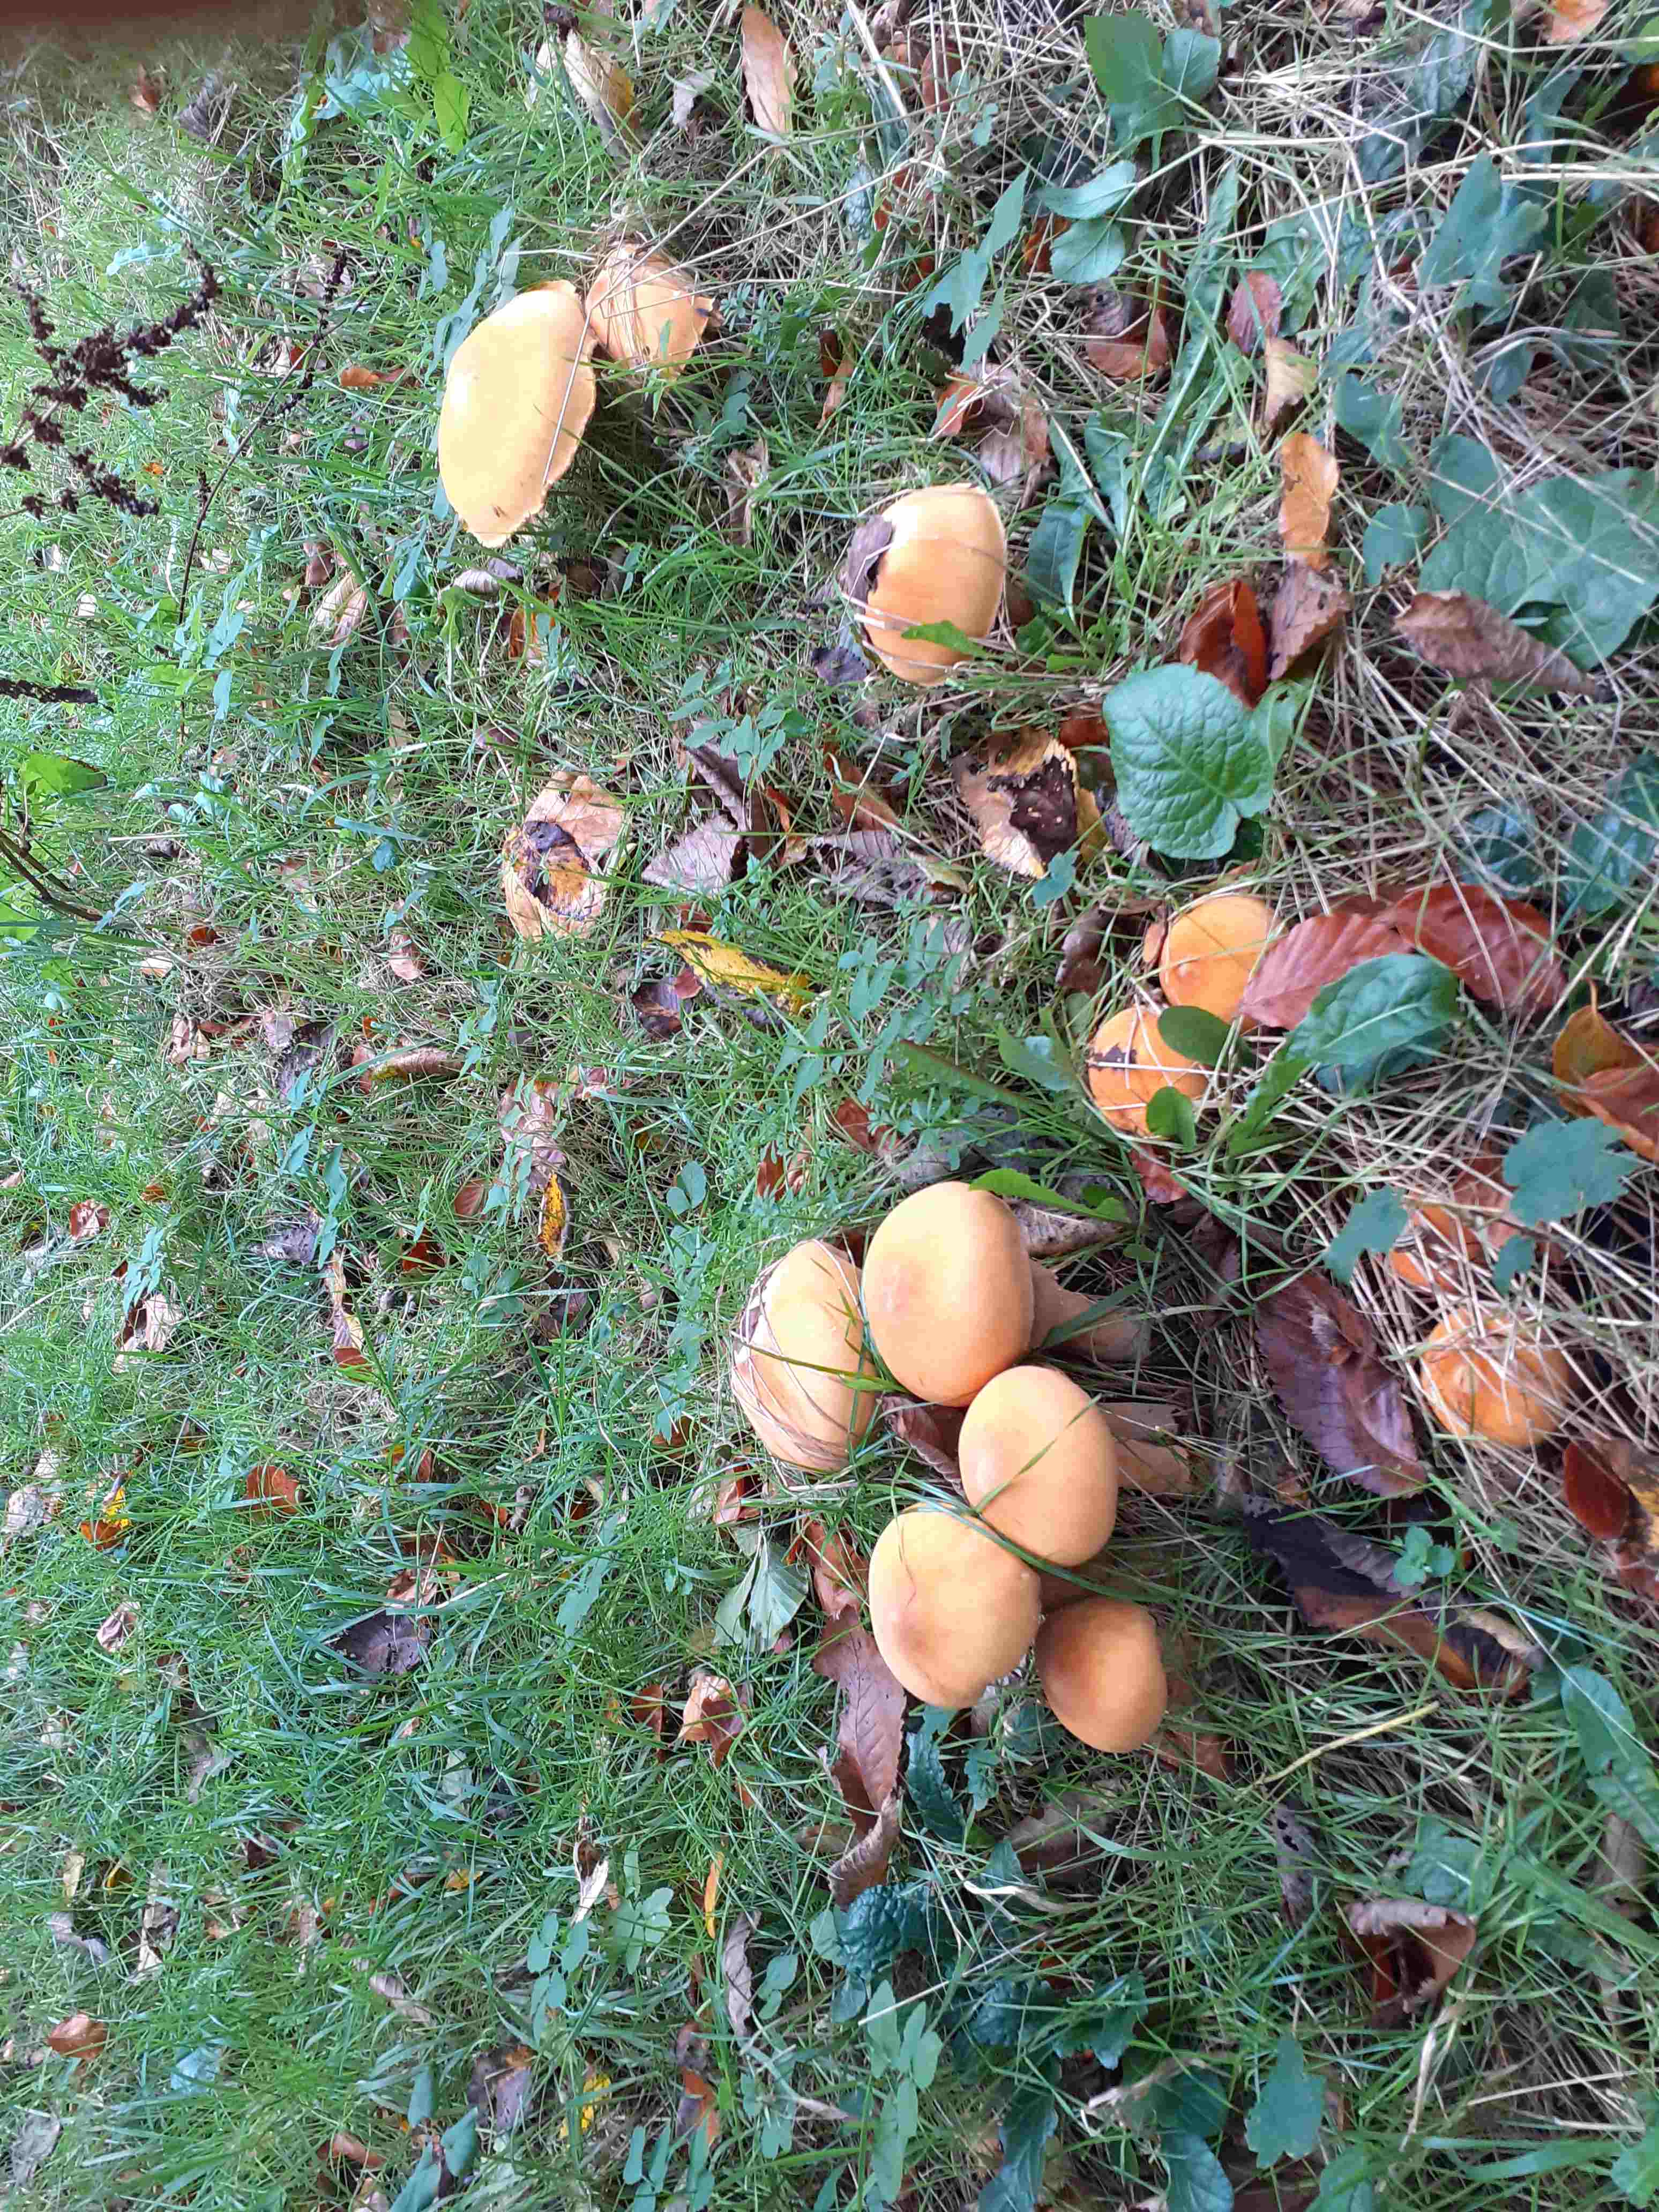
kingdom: Fungi
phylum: Basidiomycota
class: Agaricomycetes
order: Agaricales
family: Tricholomataceae
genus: Phaeolepiota
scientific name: Phaeolepiota aurea
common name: gyldenhat
